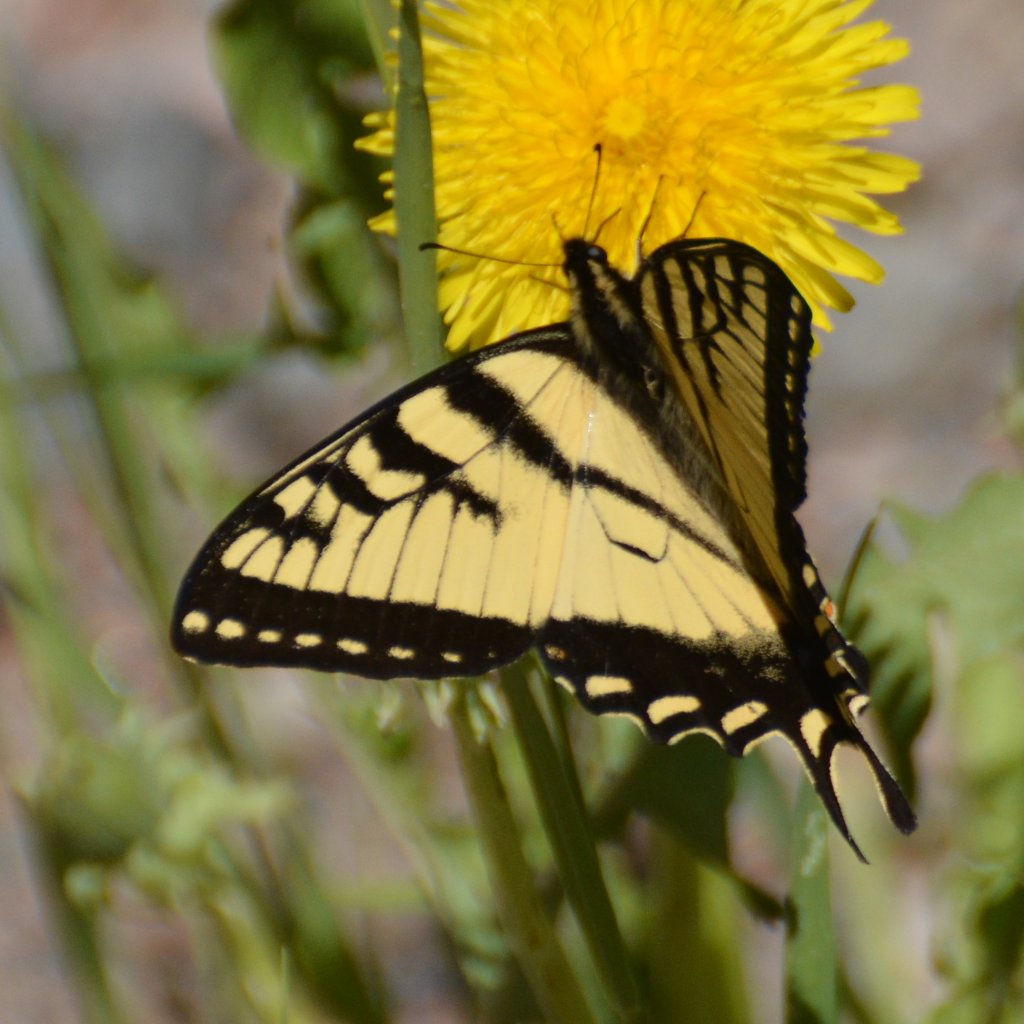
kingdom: Animalia
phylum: Arthropoda
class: Insecta
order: Lepidoptera
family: Papilionidae
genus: Pterourus
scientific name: Pterourus canadensis
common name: Canadian Tiger Swallowtail
